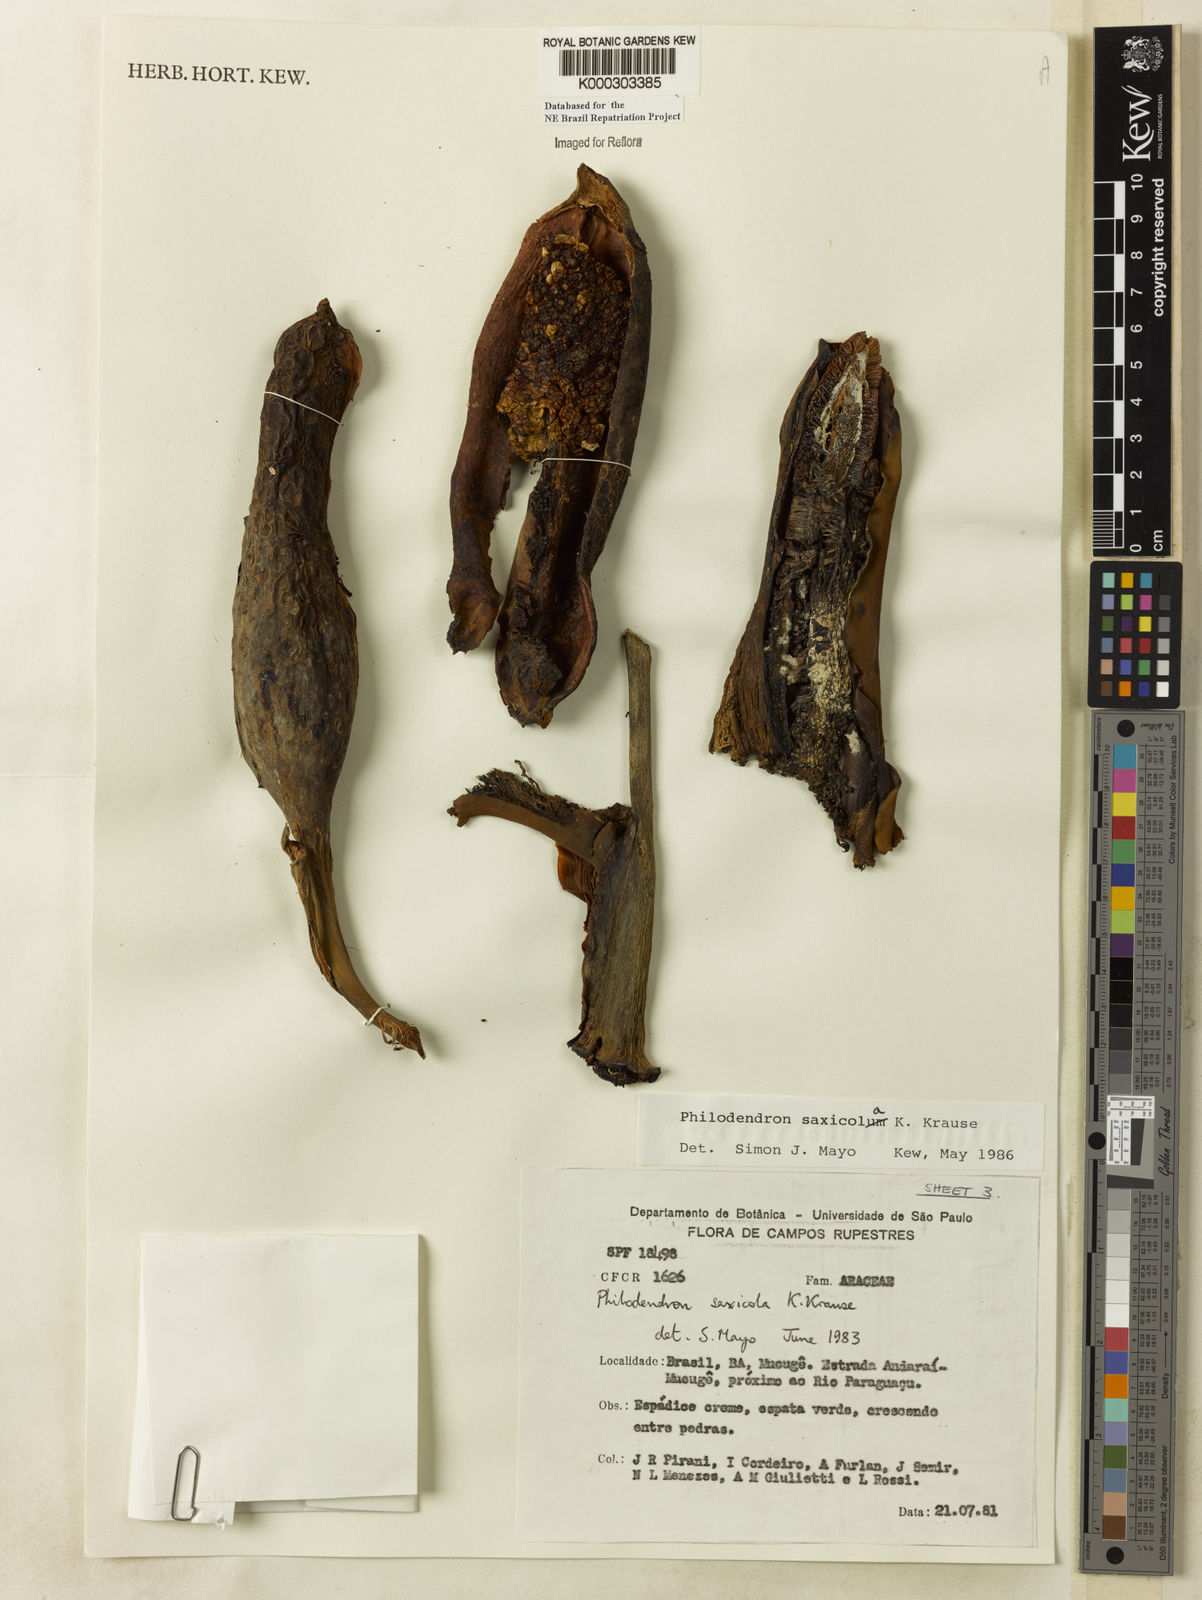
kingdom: Plantae
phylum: Tracheophyta
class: Liliopsida
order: Alismatales
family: Araceae
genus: Thaumatophyllum
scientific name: Thaumatophyllum saxicola
